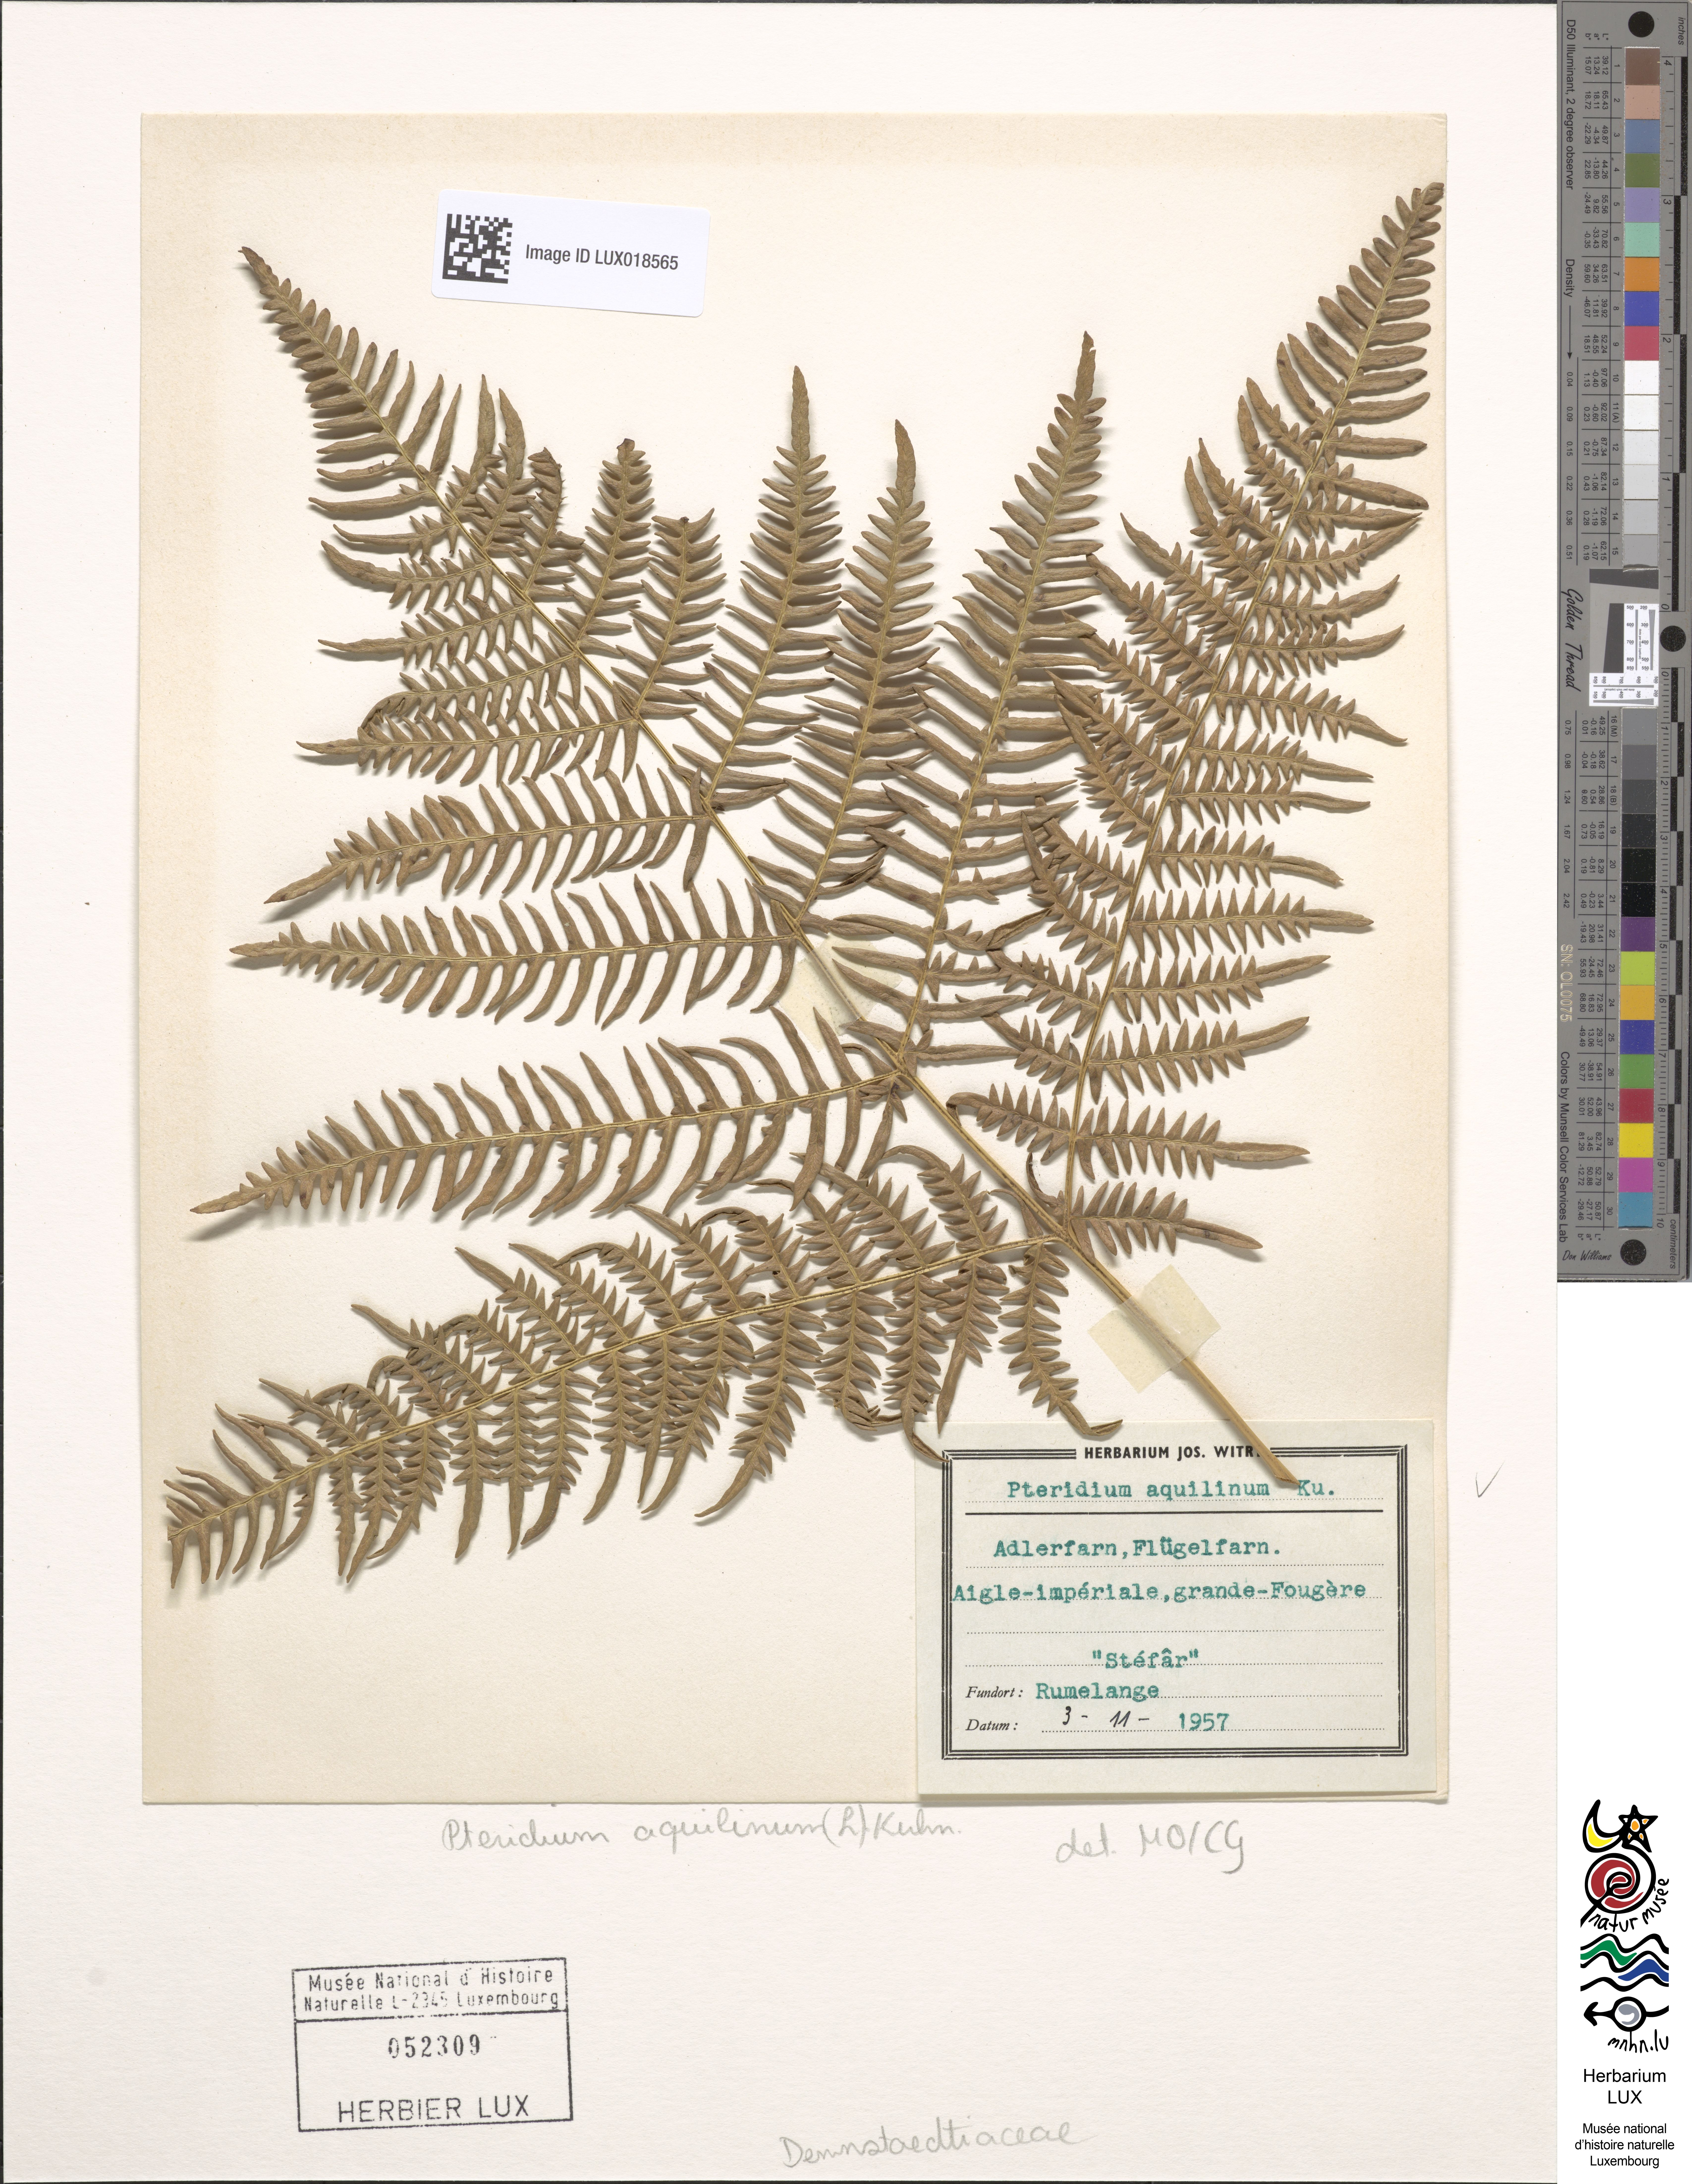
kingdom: Plantae
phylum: Tracheophyta
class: Polypodiopsida
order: Polypodiales
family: Dennstaedtiaceae
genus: Pteridium
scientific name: Pteridium aquilinum
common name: Bracken
